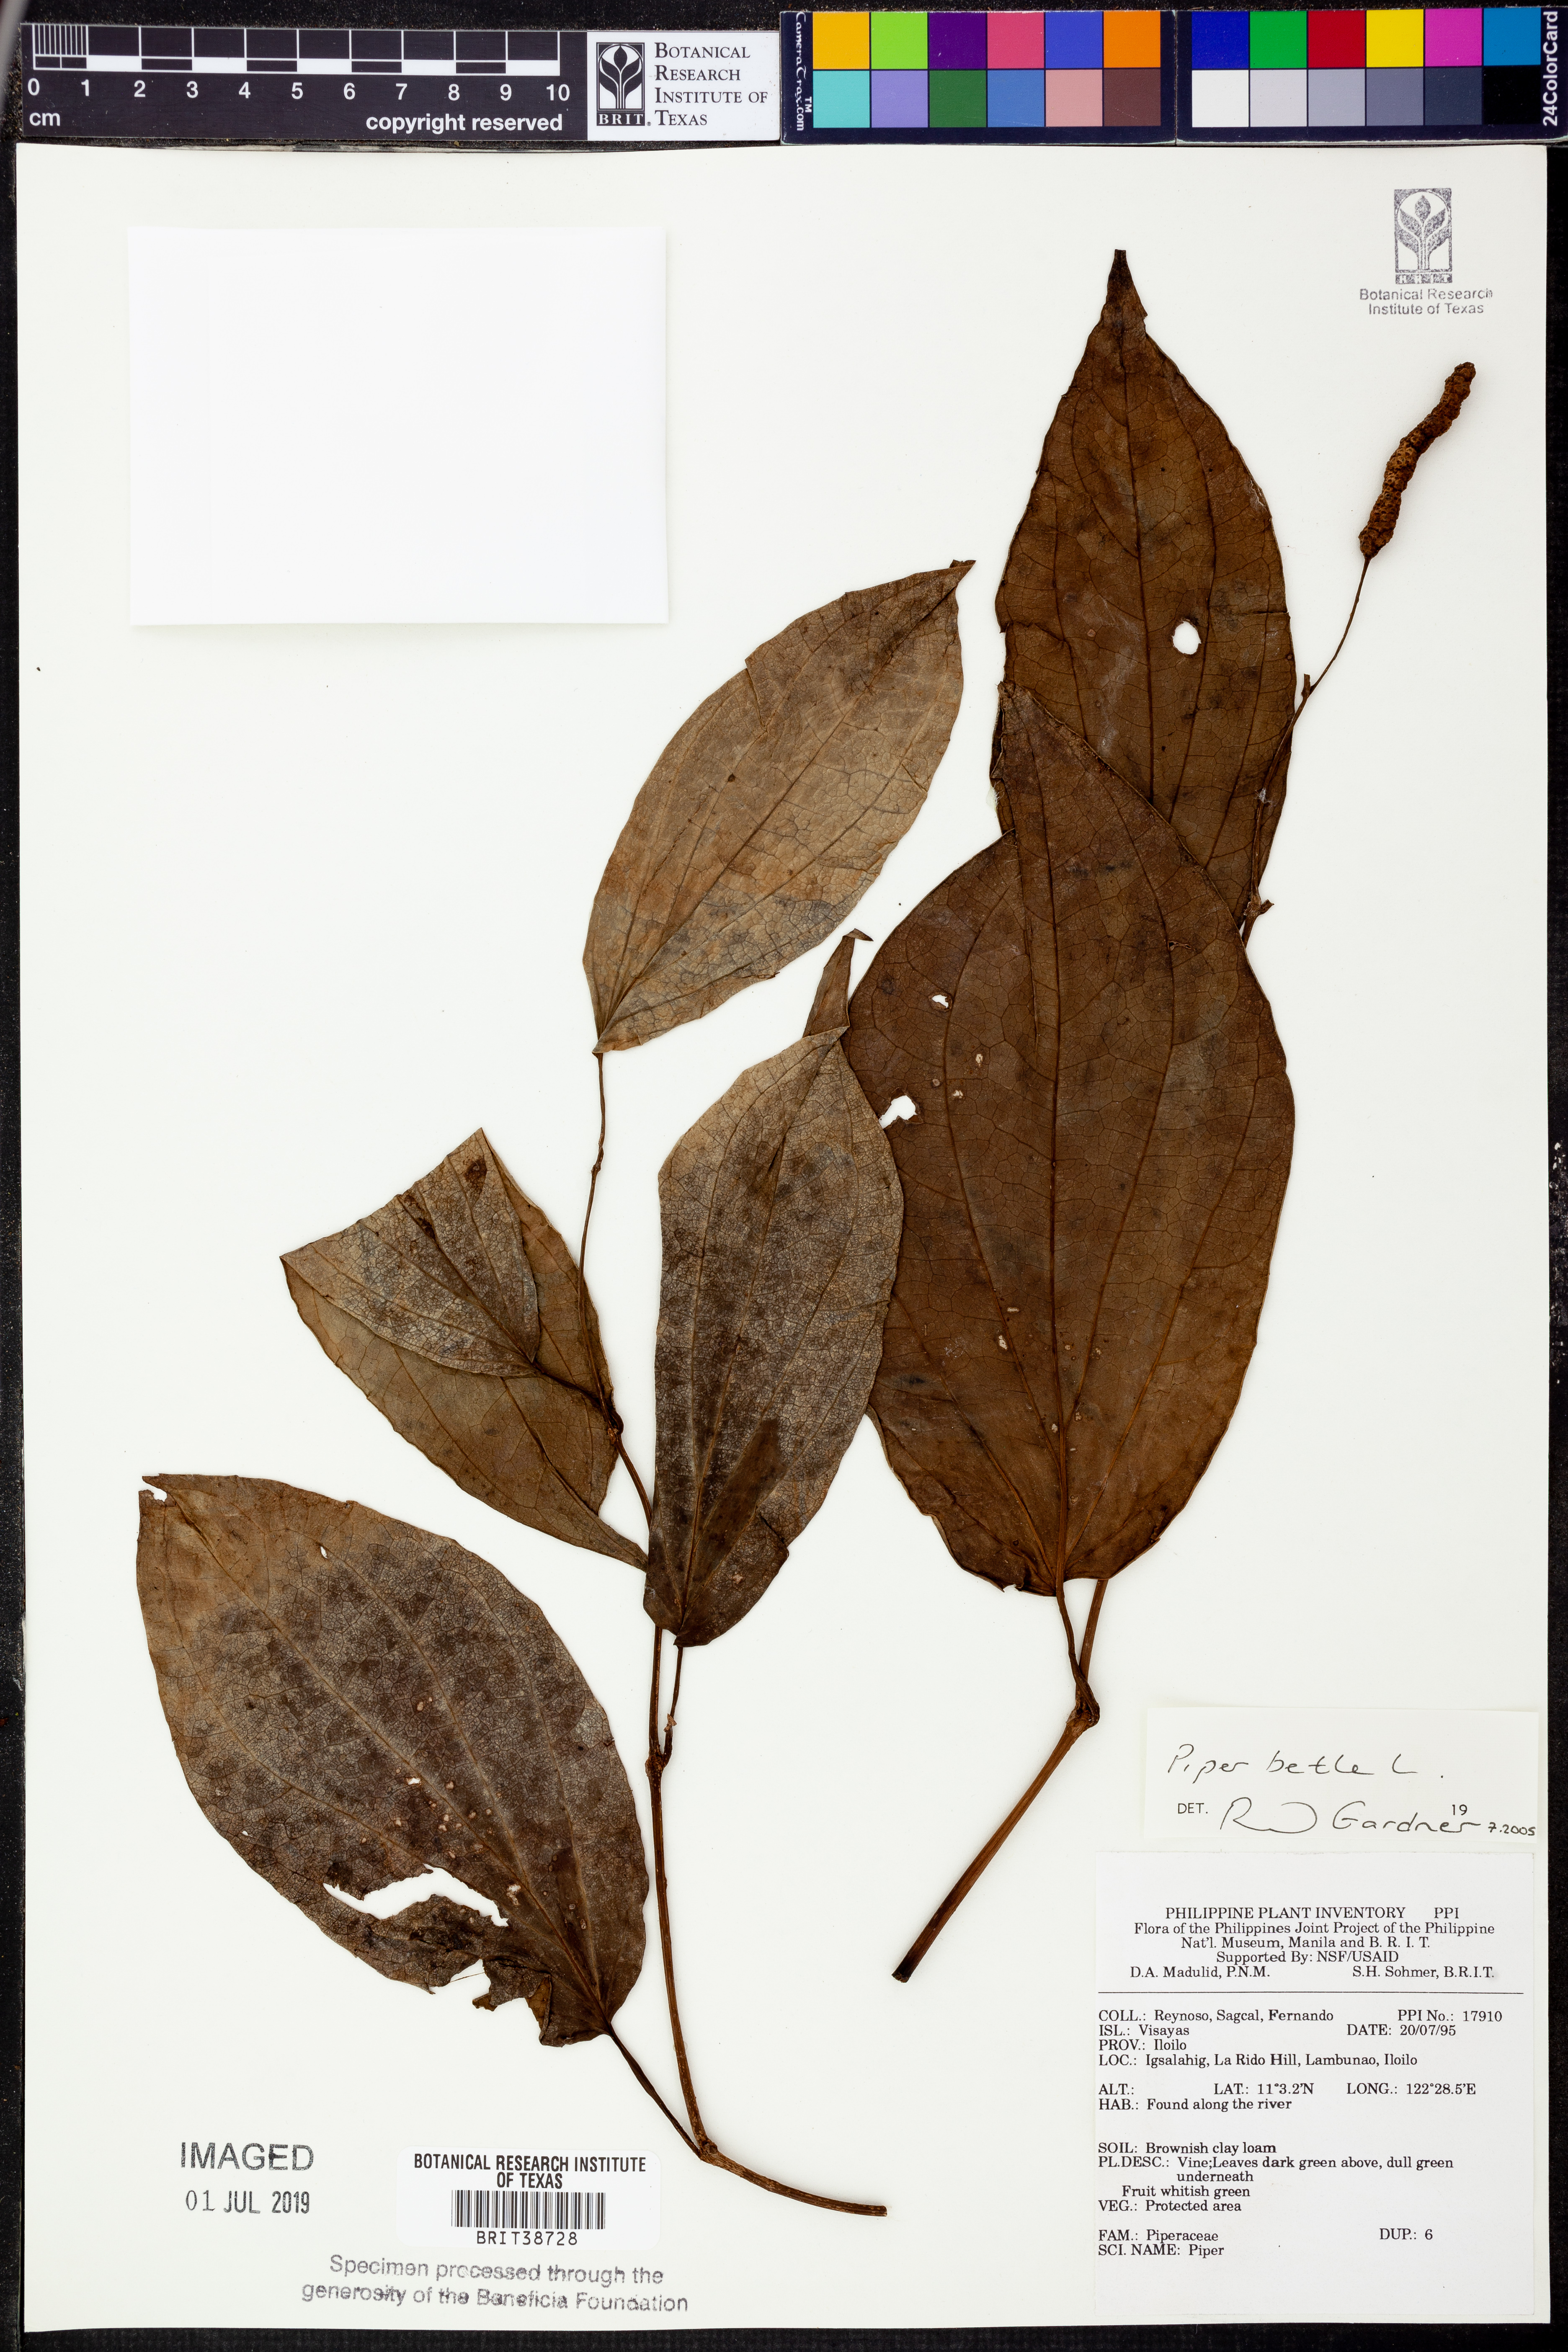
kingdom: Plantae
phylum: Tracheophyta
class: Magnoliopsida
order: Piperales
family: Piperaceae
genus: Piper
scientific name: Piper betle
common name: Betel pepper
